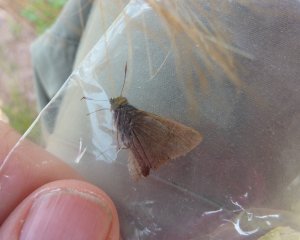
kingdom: Animalia
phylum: Arthropoda
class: Insecta
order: Lepidoptera
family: Hesperiidae
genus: Euphyes
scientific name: Euphyes vestris
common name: Dun Skipper
